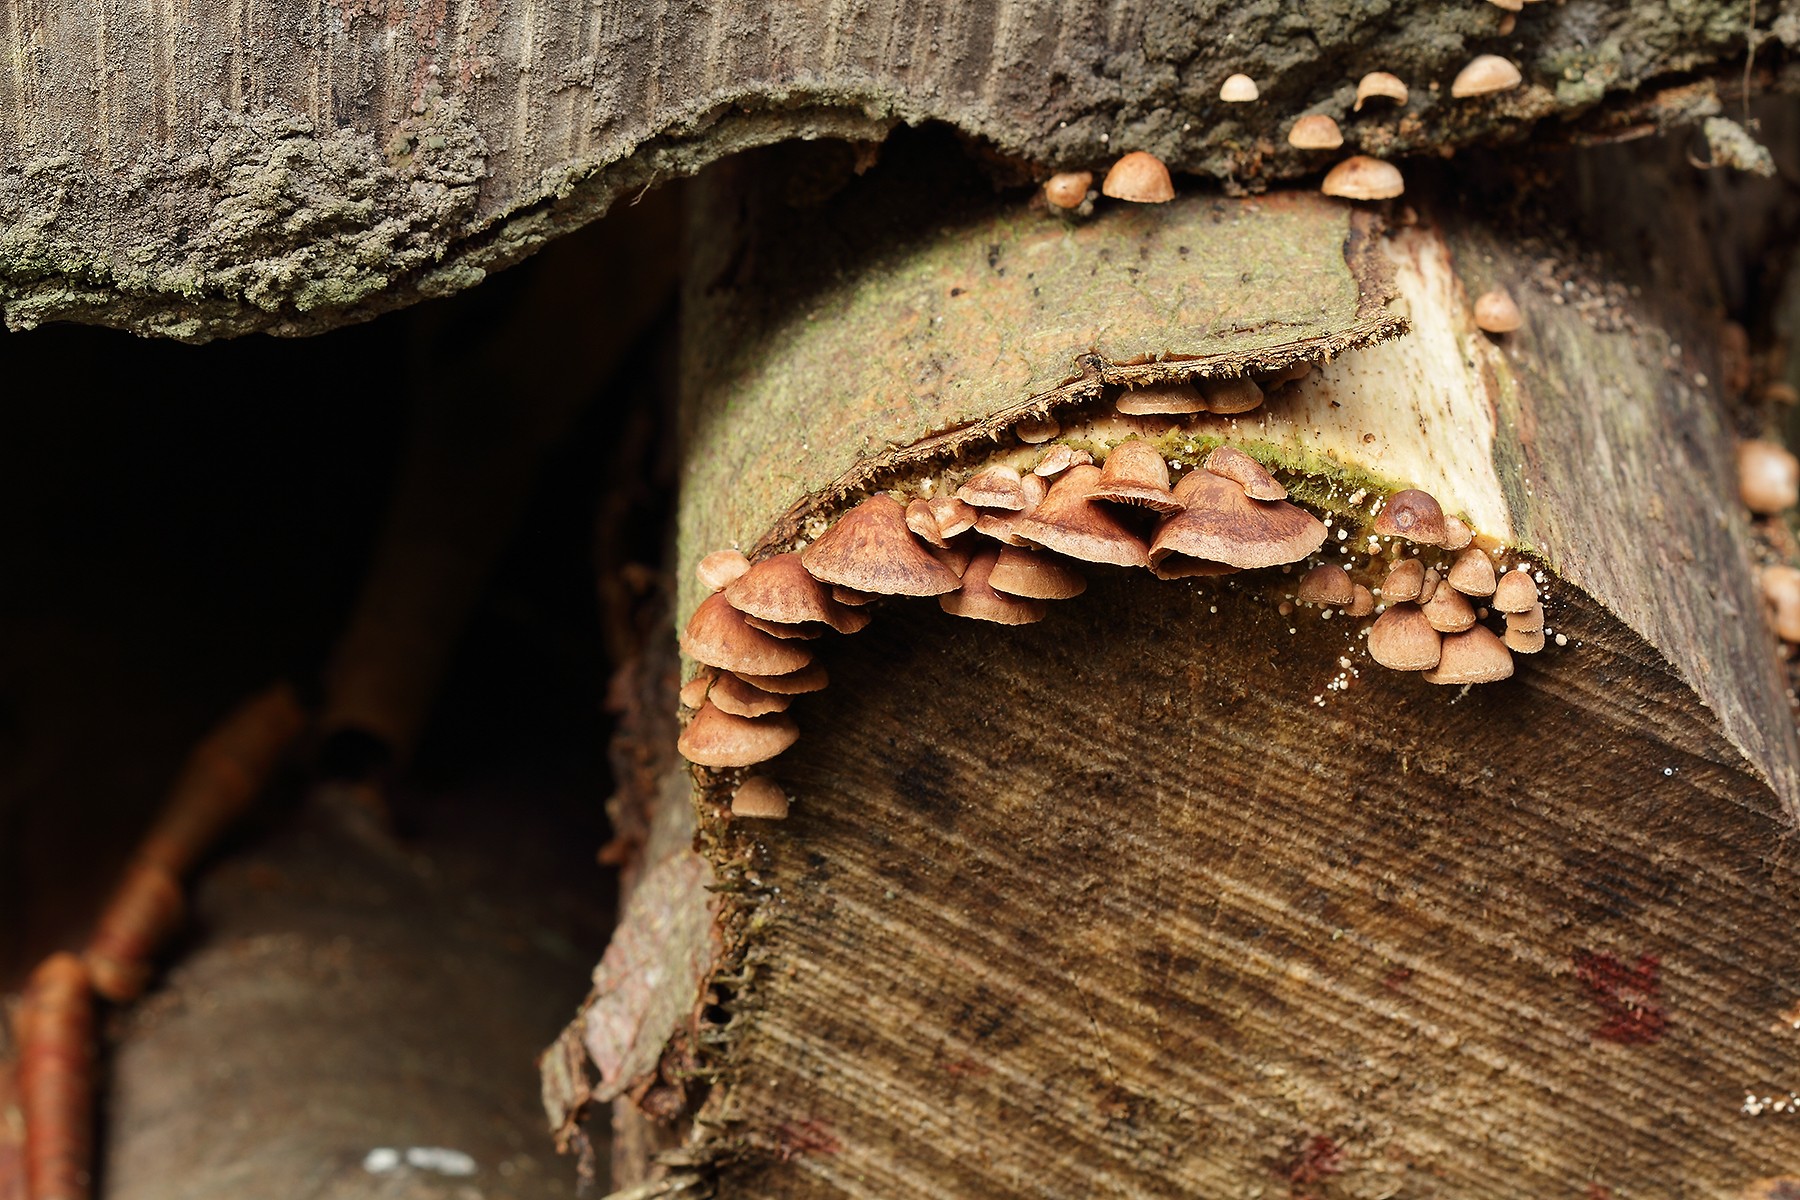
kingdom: Fungi
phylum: Basidiomycota
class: Agaricomycetes
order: Agaricales
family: Strophariaceae
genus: Deconica
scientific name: Deconica horizontalis
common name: ved-stråhat
